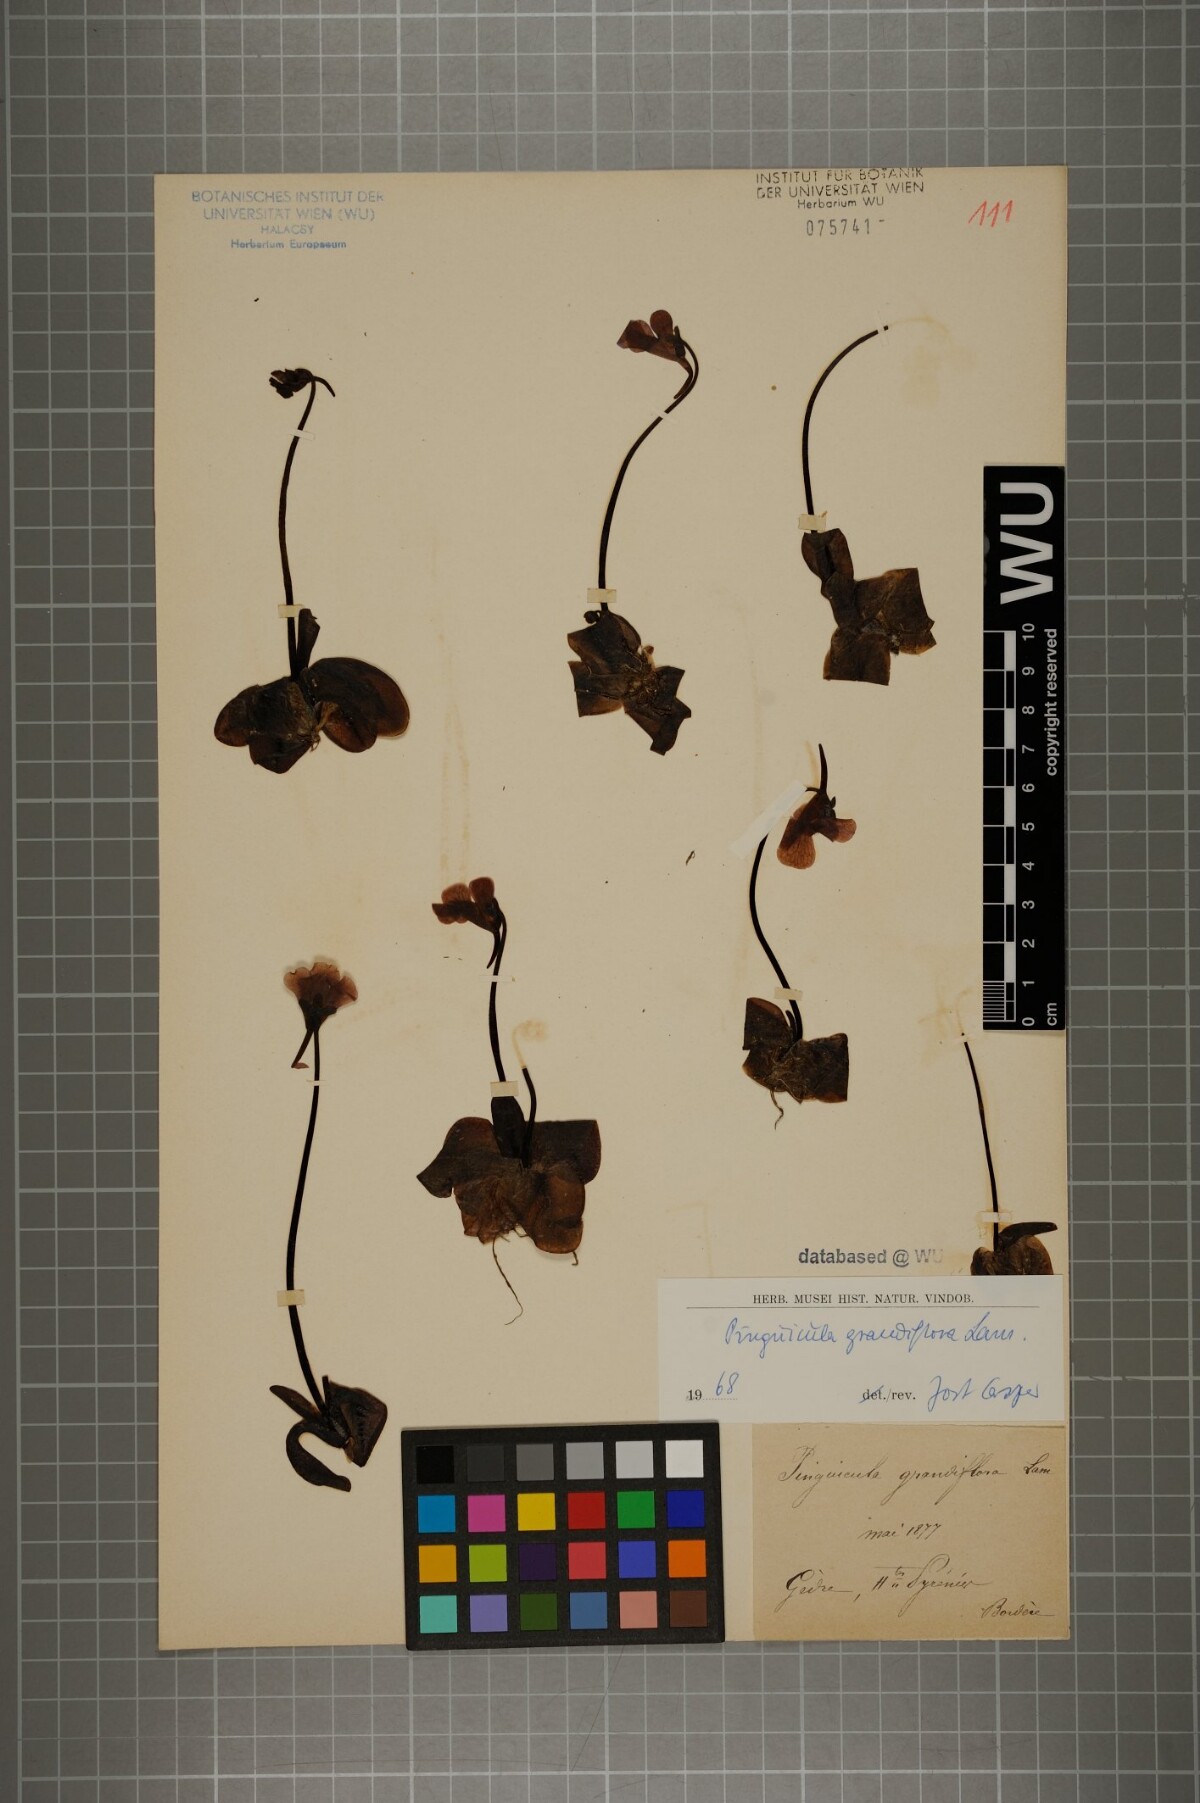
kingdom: Plantae
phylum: Tracheophyta
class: Magnoliopsida
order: Lamiales
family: Lentibulariaceae
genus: Pinguicula
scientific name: Pinguicula grandiflora
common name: Large-flowered butterwort
